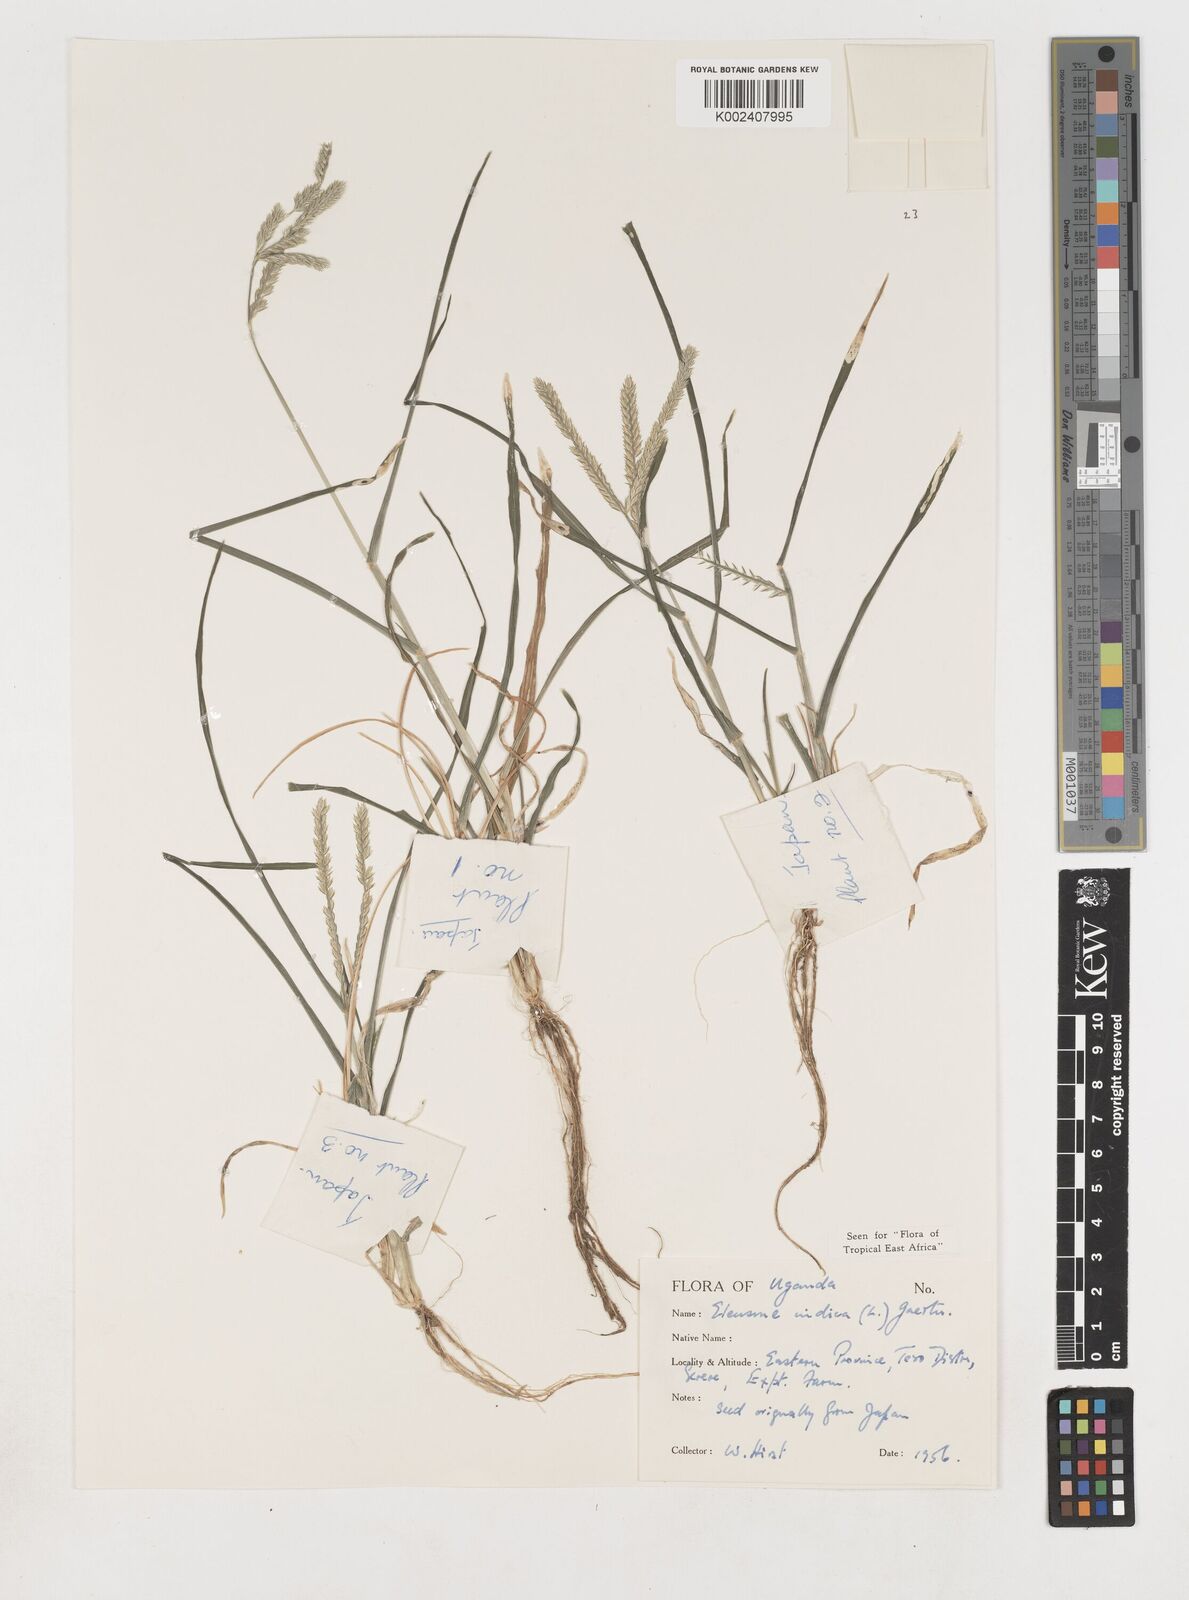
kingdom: Plantae
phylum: Tracheophyta
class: Liliopsida
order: Poales
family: Poaceae
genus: Eleusine
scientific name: Eleusine indica
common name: Yard-grass
